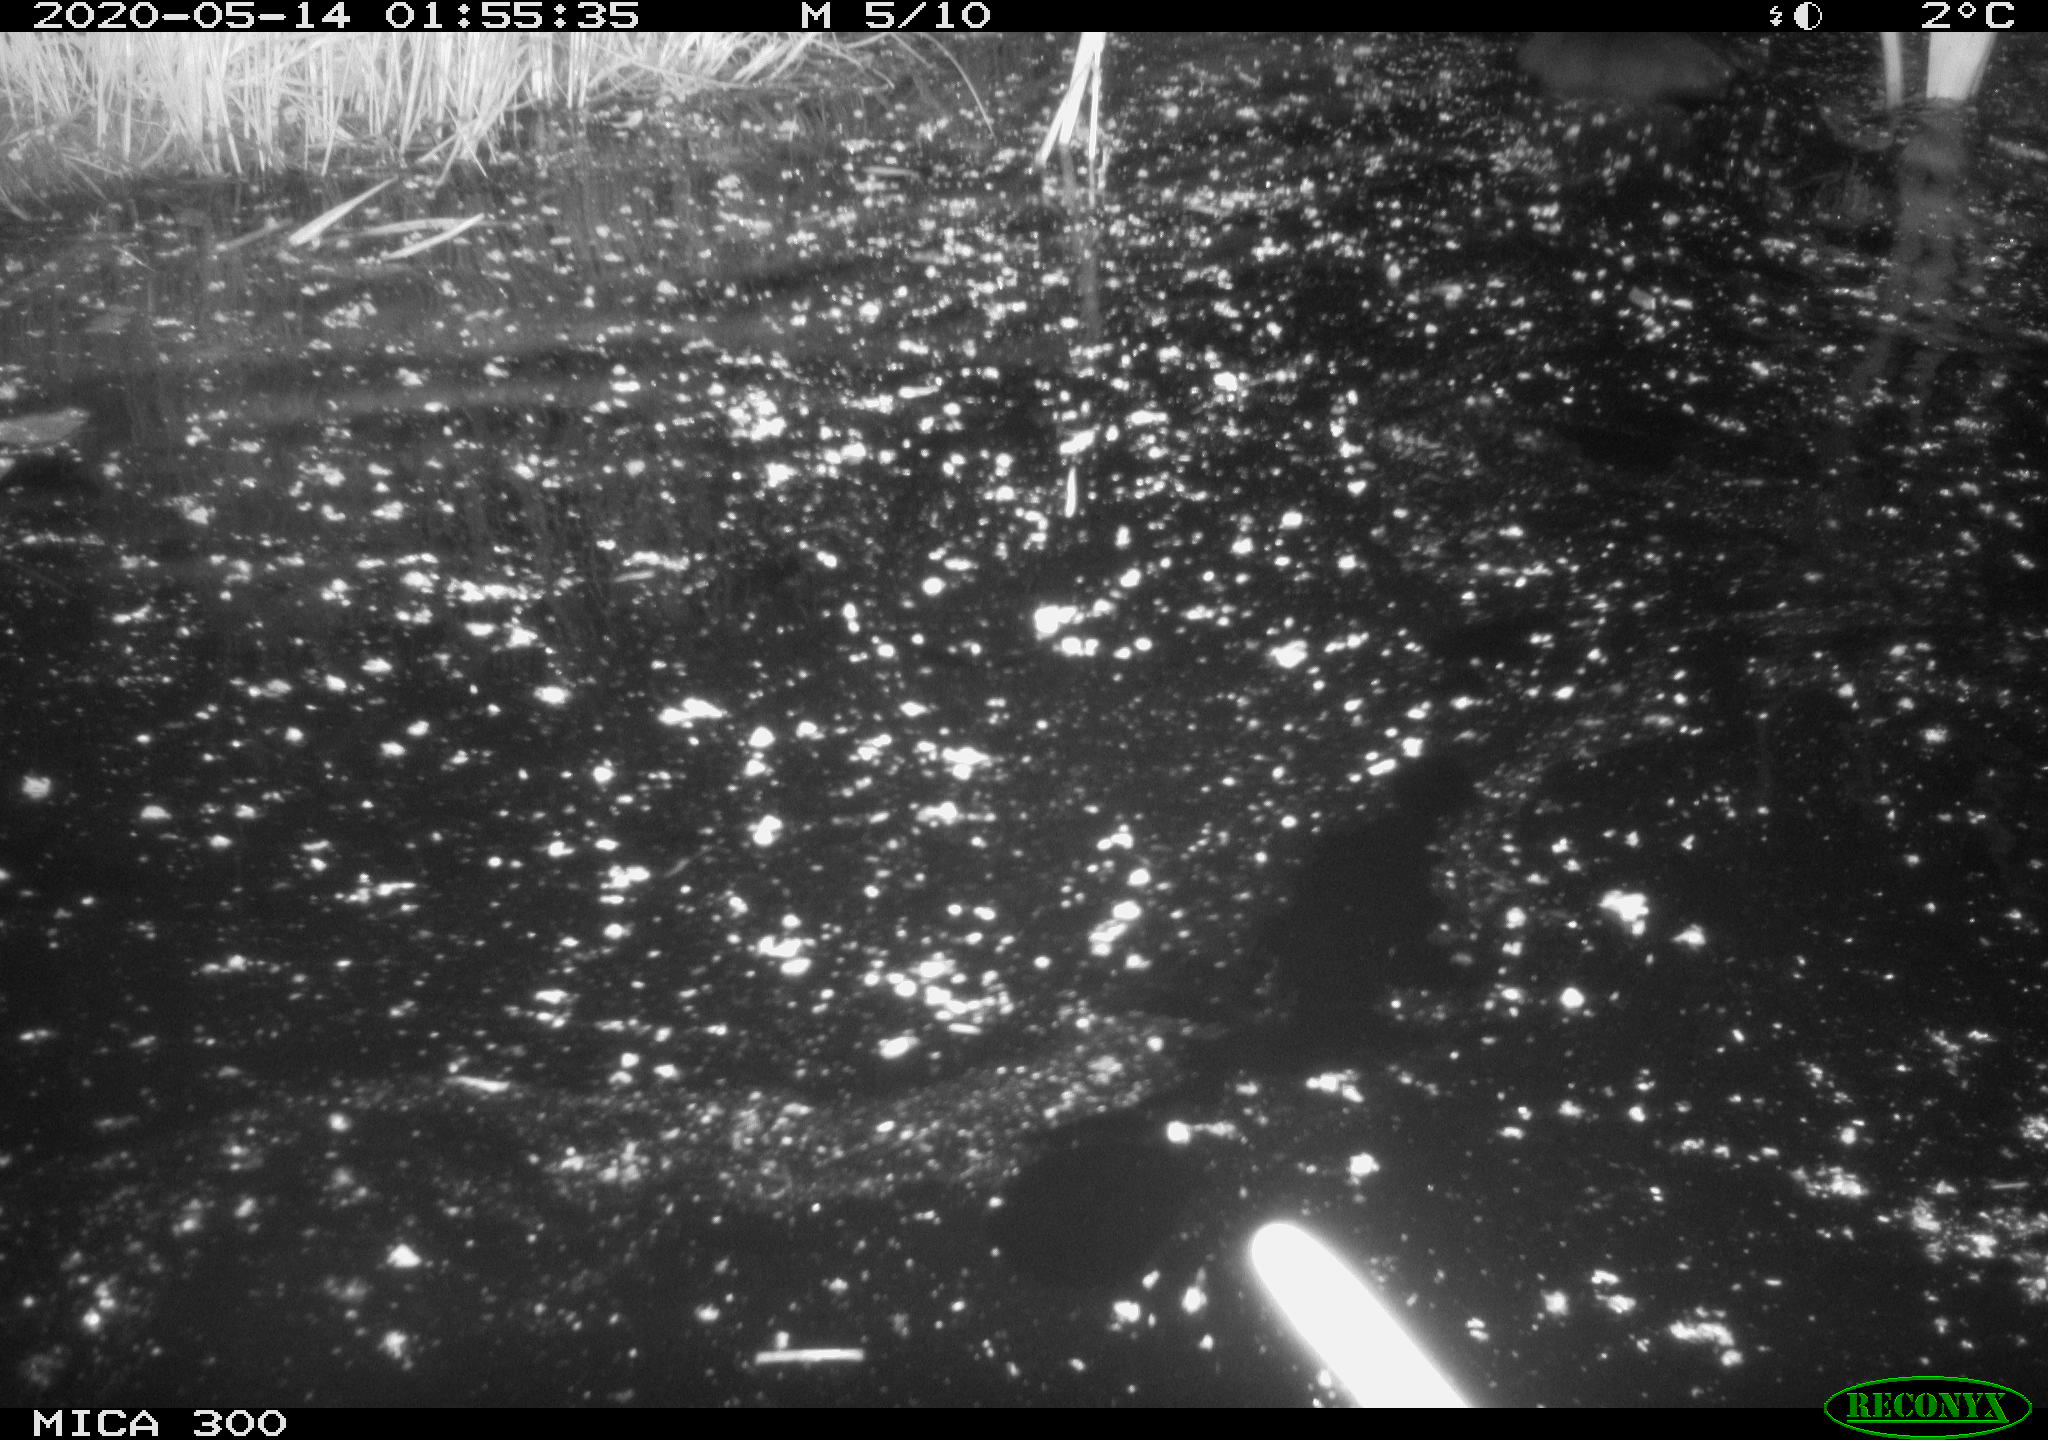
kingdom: Animalia
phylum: Chordata
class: Mammalia
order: Rodentia
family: Castoridae
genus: Castor
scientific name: Castor fiber
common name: Eurasian beaver
